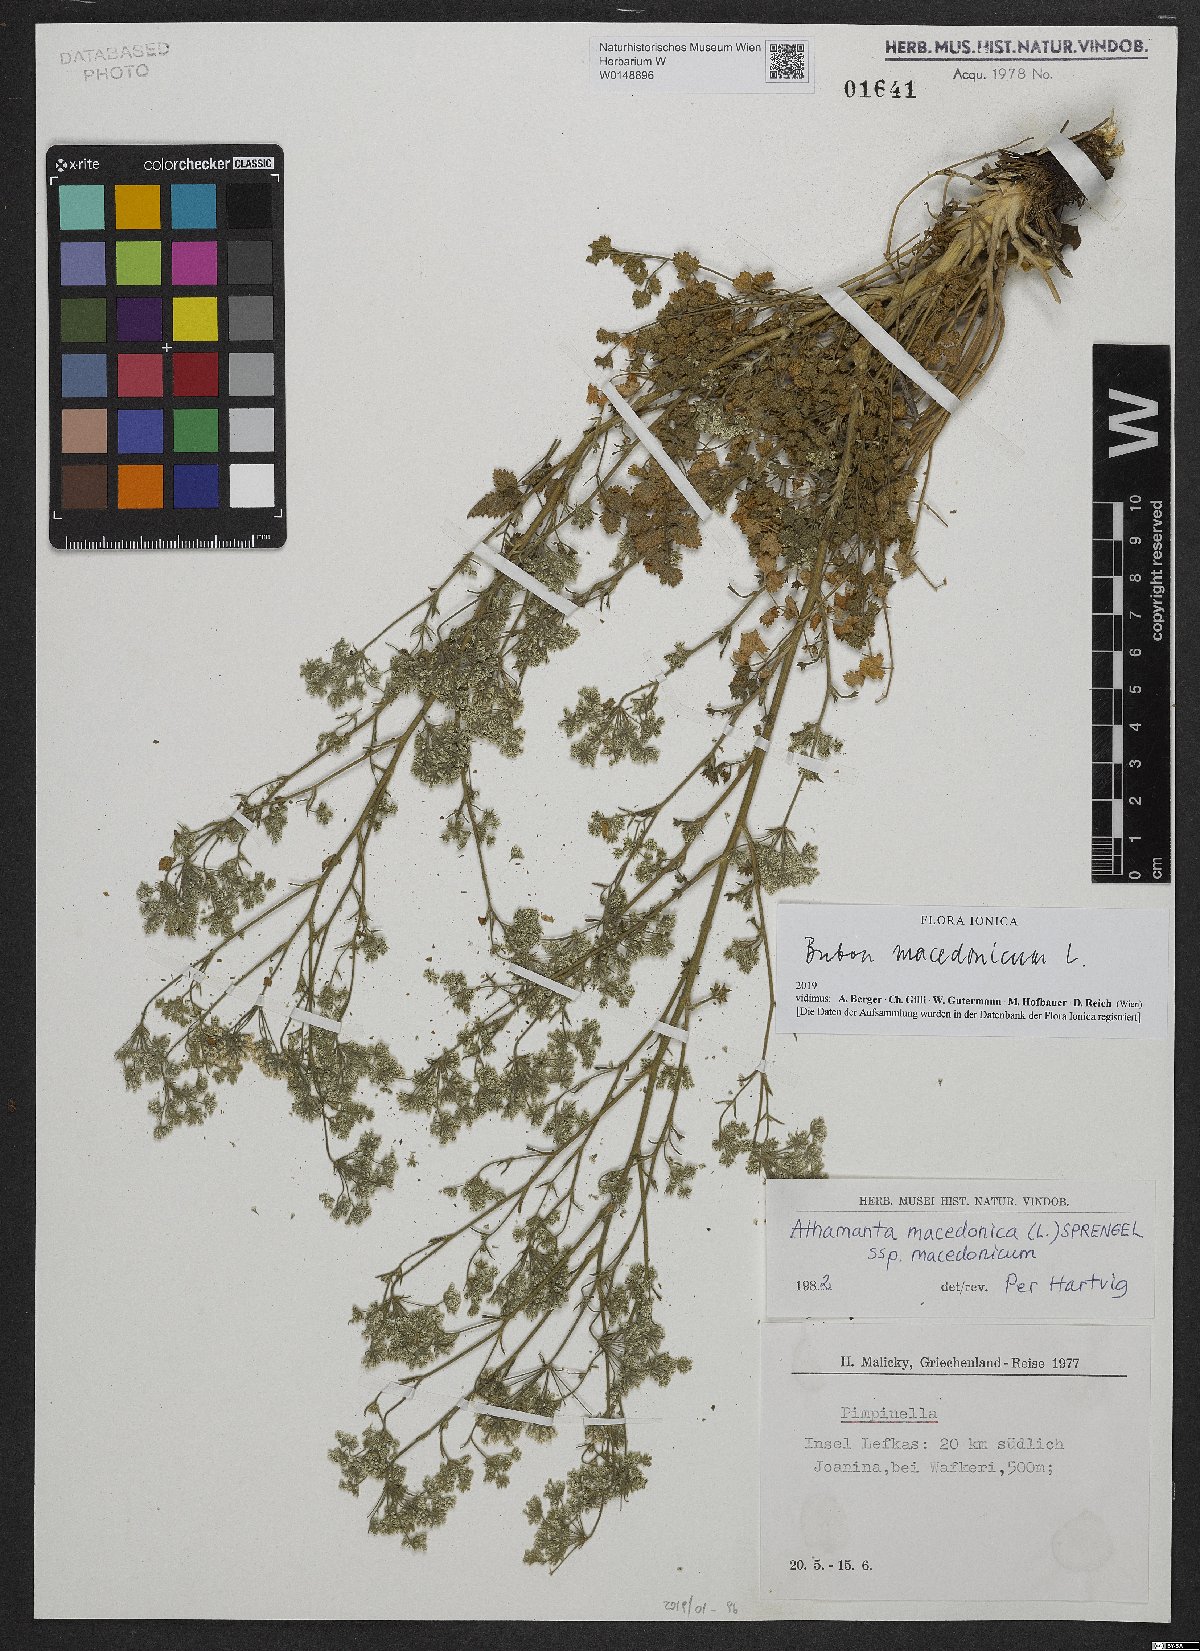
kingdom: Plantae
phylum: Tracheophyta
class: Magnoliopsida
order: Apiales
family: Apiaceae
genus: Bubon
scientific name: Bubon macedonicum
